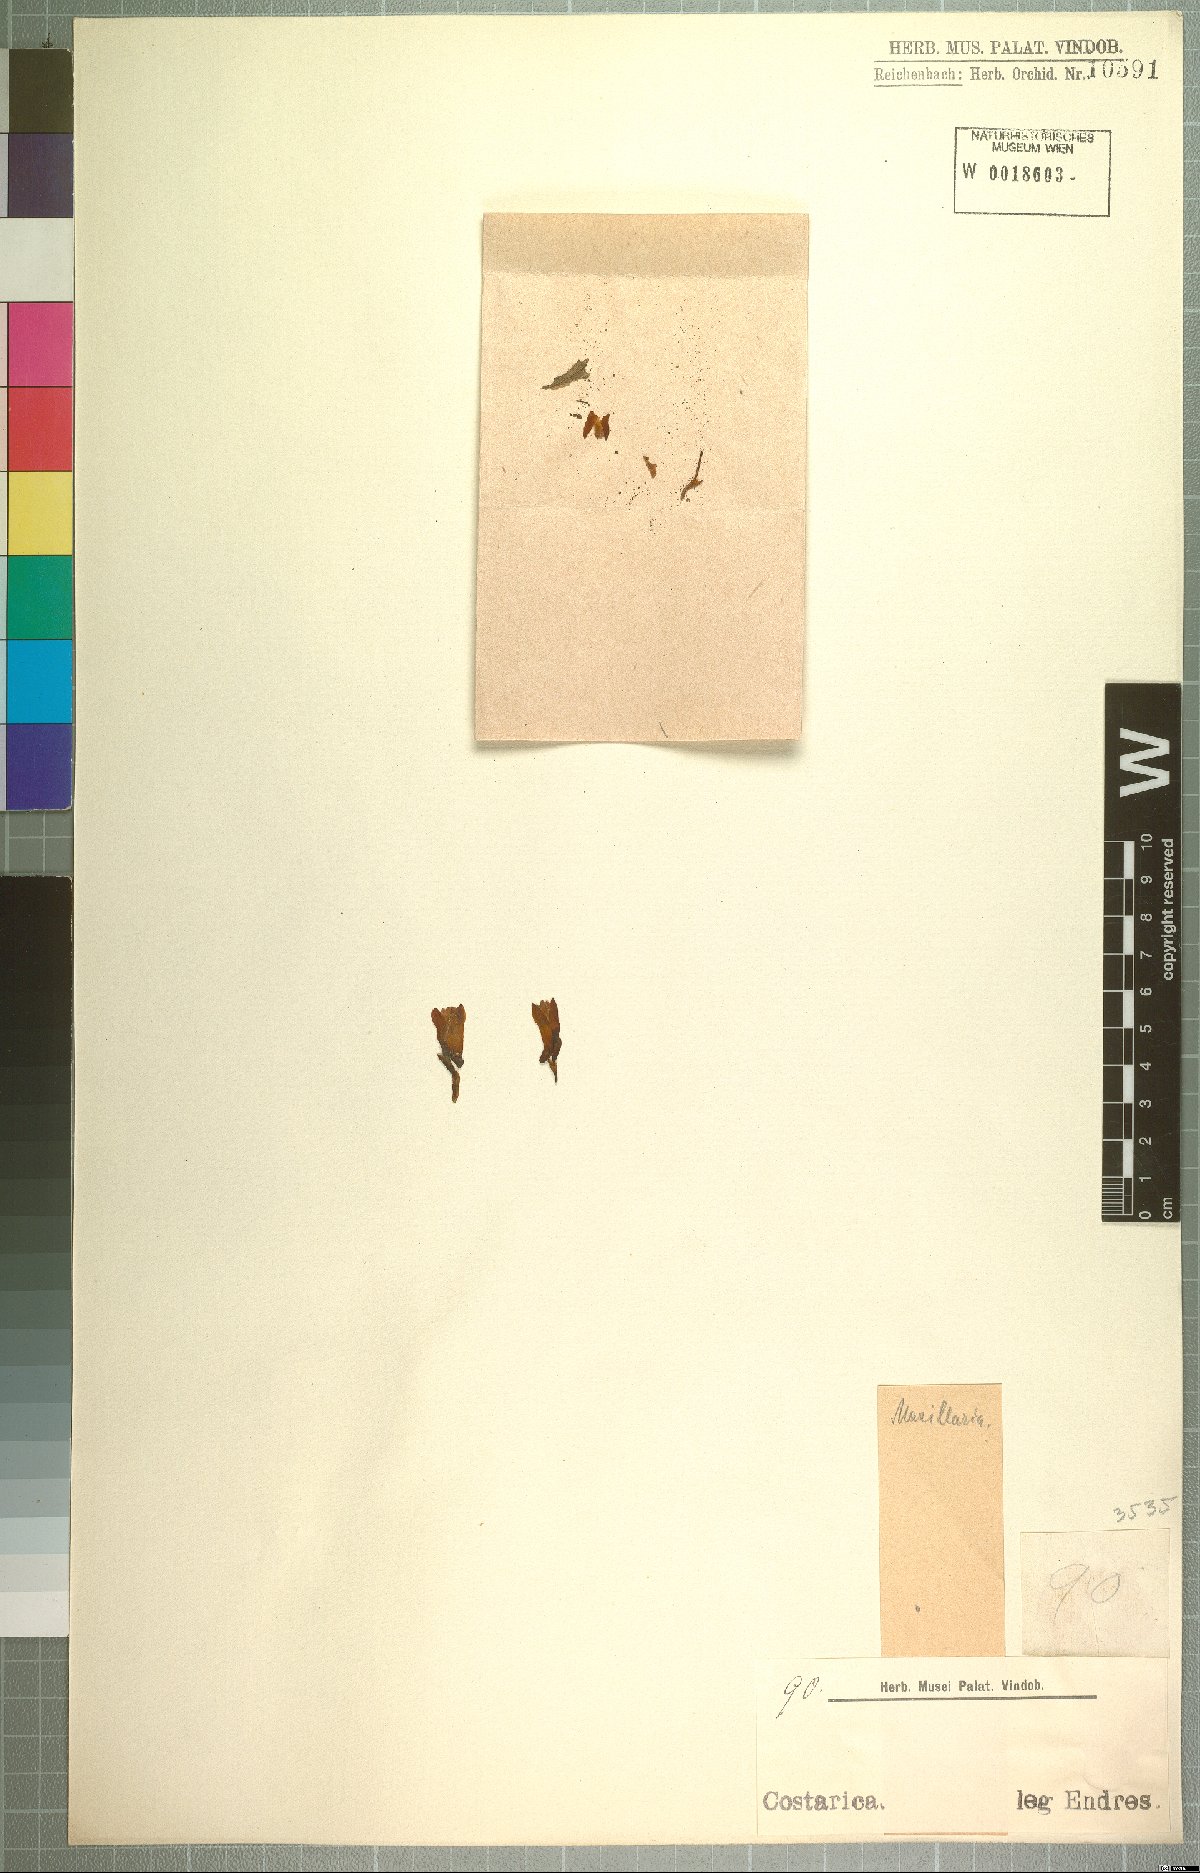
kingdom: Plantae
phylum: Tracheophyta
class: Liliopsida
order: Asparagales
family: Orchidaceae
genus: Maxillaria
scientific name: Maxillaria
